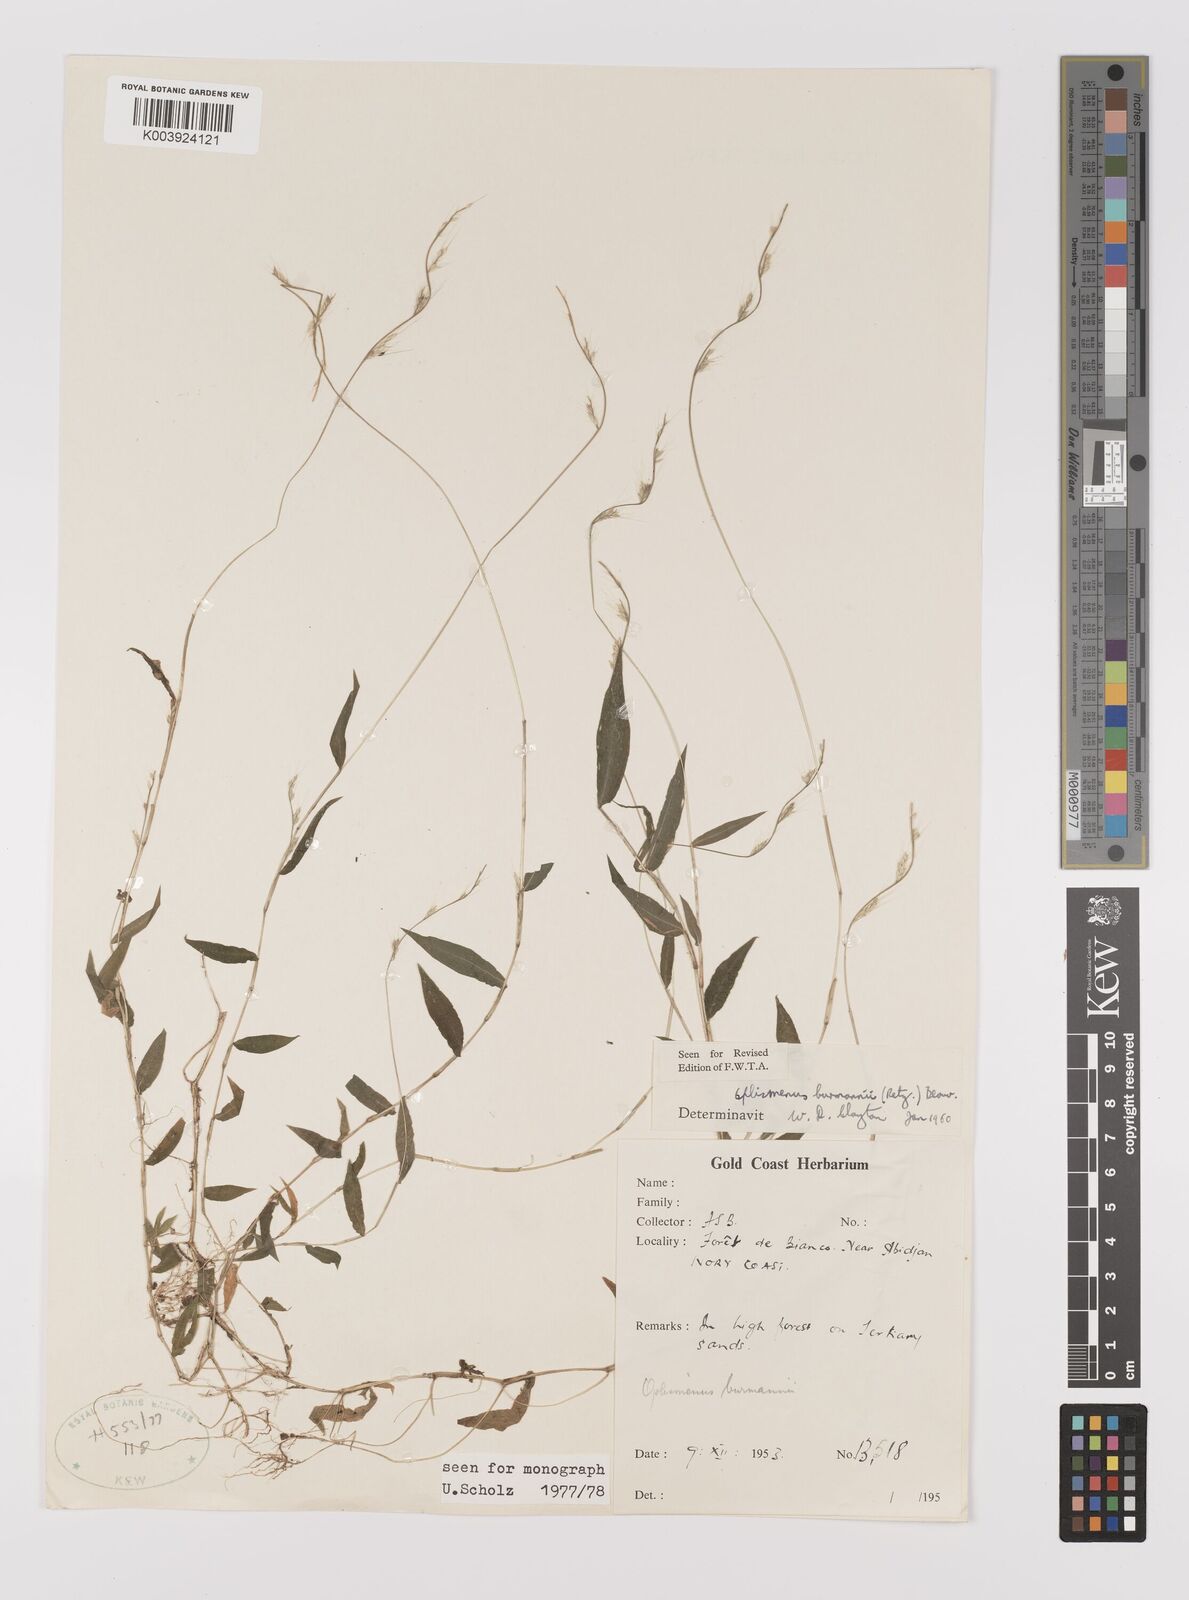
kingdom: Plantae
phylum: Tracheophyta
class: Liliopsida
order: Poales
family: Poaceae
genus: Oplismenus
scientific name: Oplismenus
